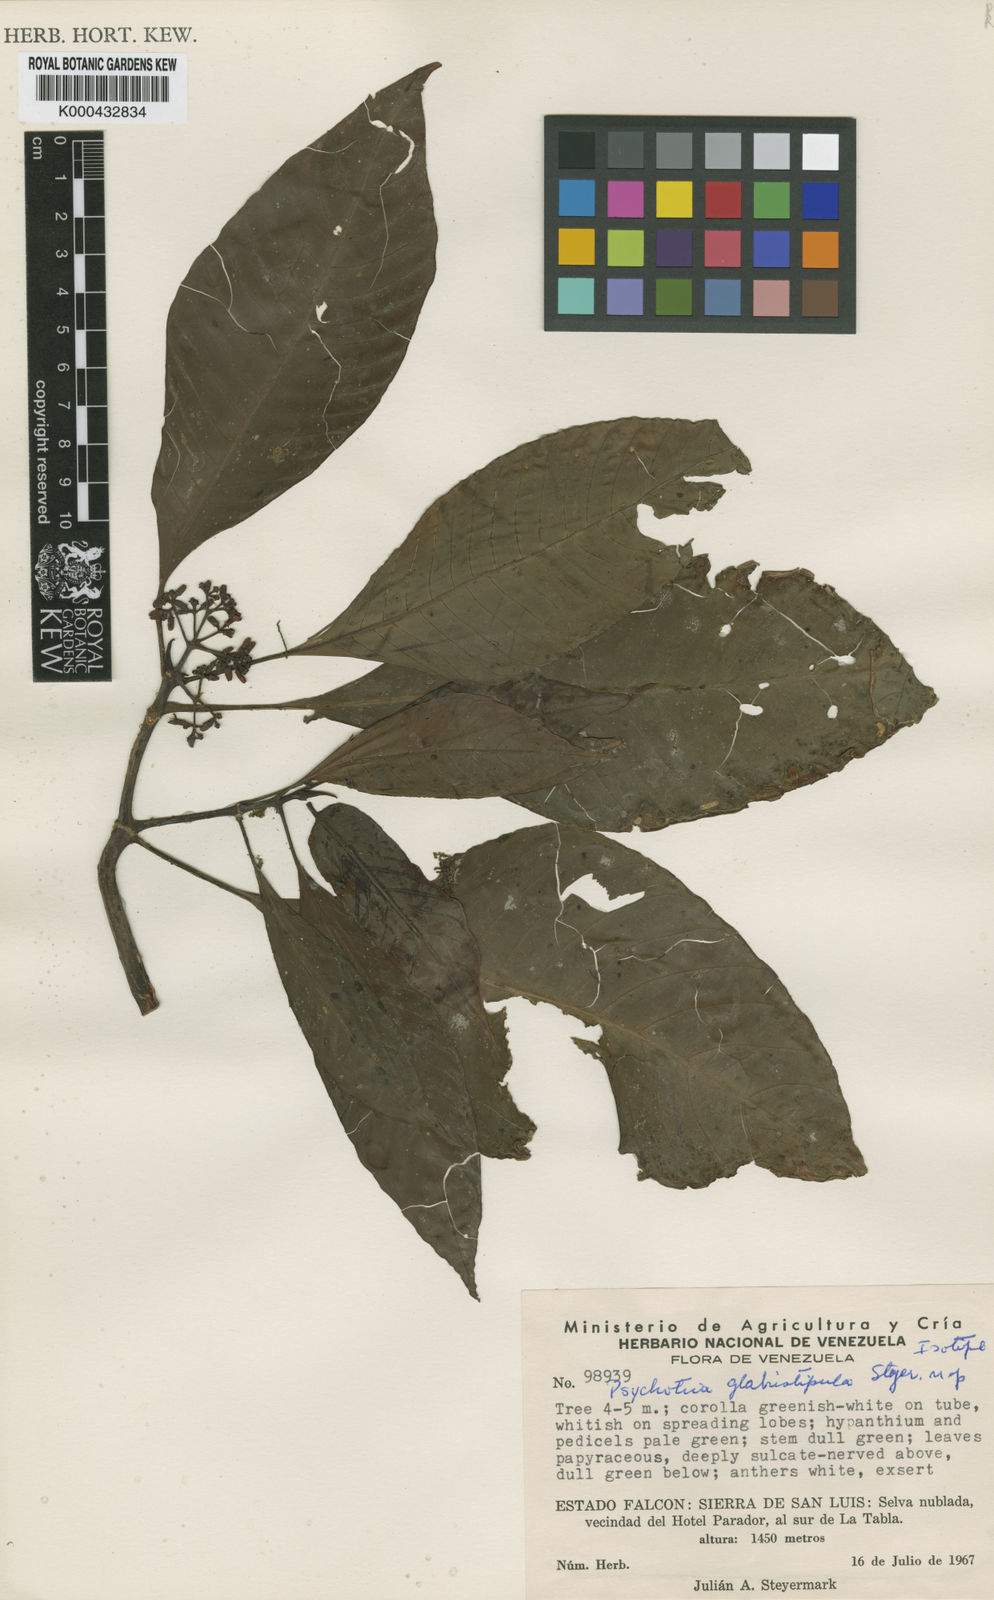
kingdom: Plantae
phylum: Tracheophyta
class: Magnoliopsida
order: Gentianales
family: Rubiaceae
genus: Psychotria
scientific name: Psychotria trichotoma
